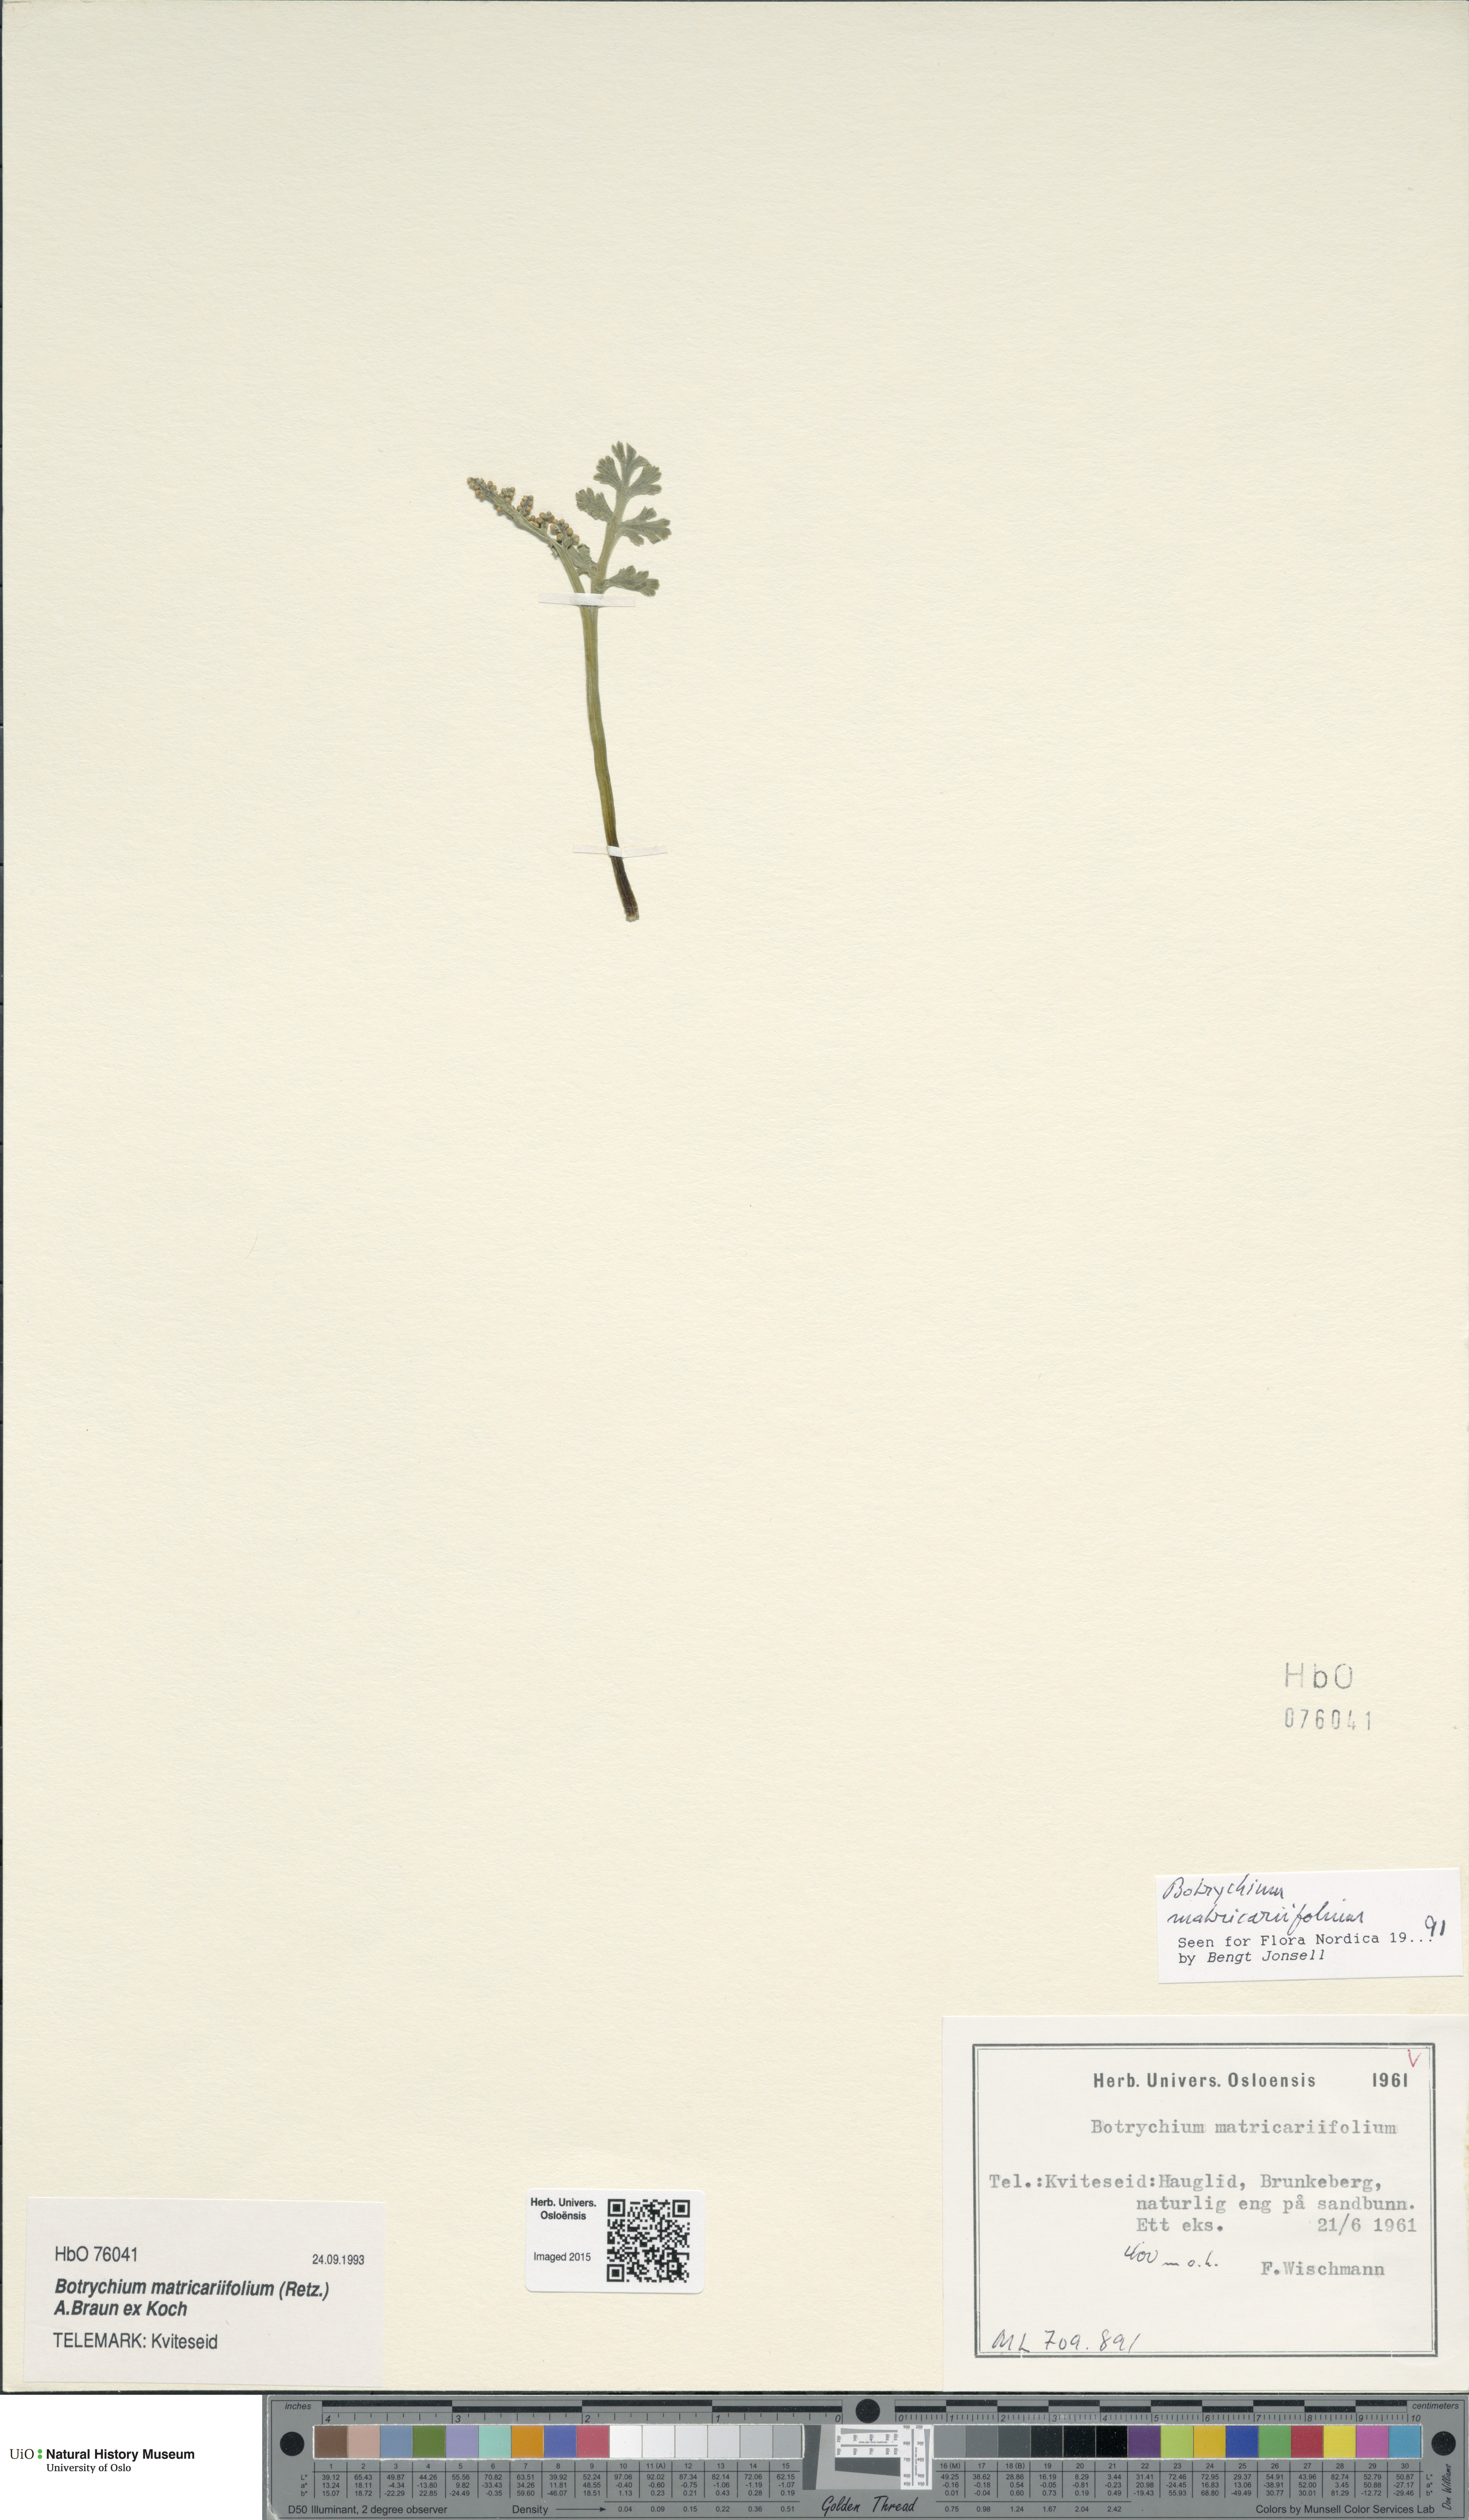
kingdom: Plantae
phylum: Tracheophyta
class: Polypodiopsida
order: Ophioglossales
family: Ophioglossaceae
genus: Botrychium
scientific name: Botrychium matricariifolium
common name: Branched moonwort
